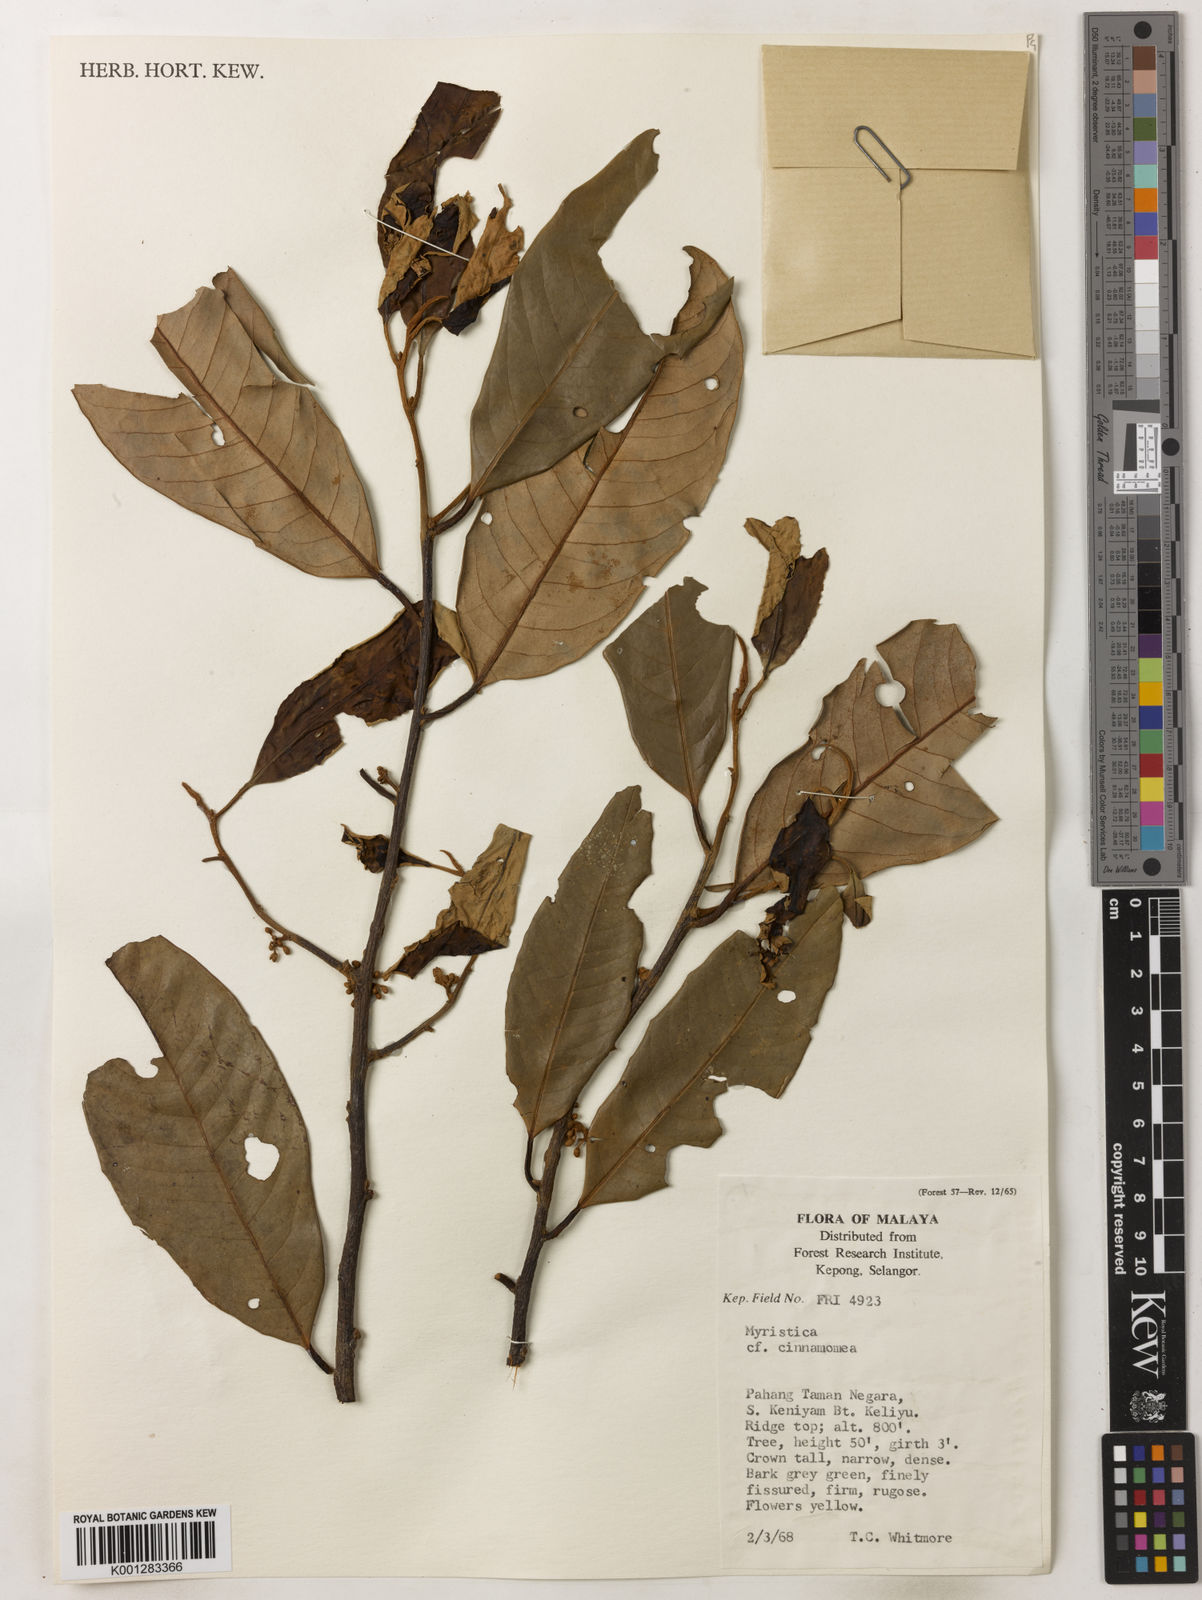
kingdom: Plantae
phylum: Tracheophyta
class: Magnoliopsida
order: Magnoliales
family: Myristicaceae
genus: Myristica
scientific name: Myristica cinnamomea
